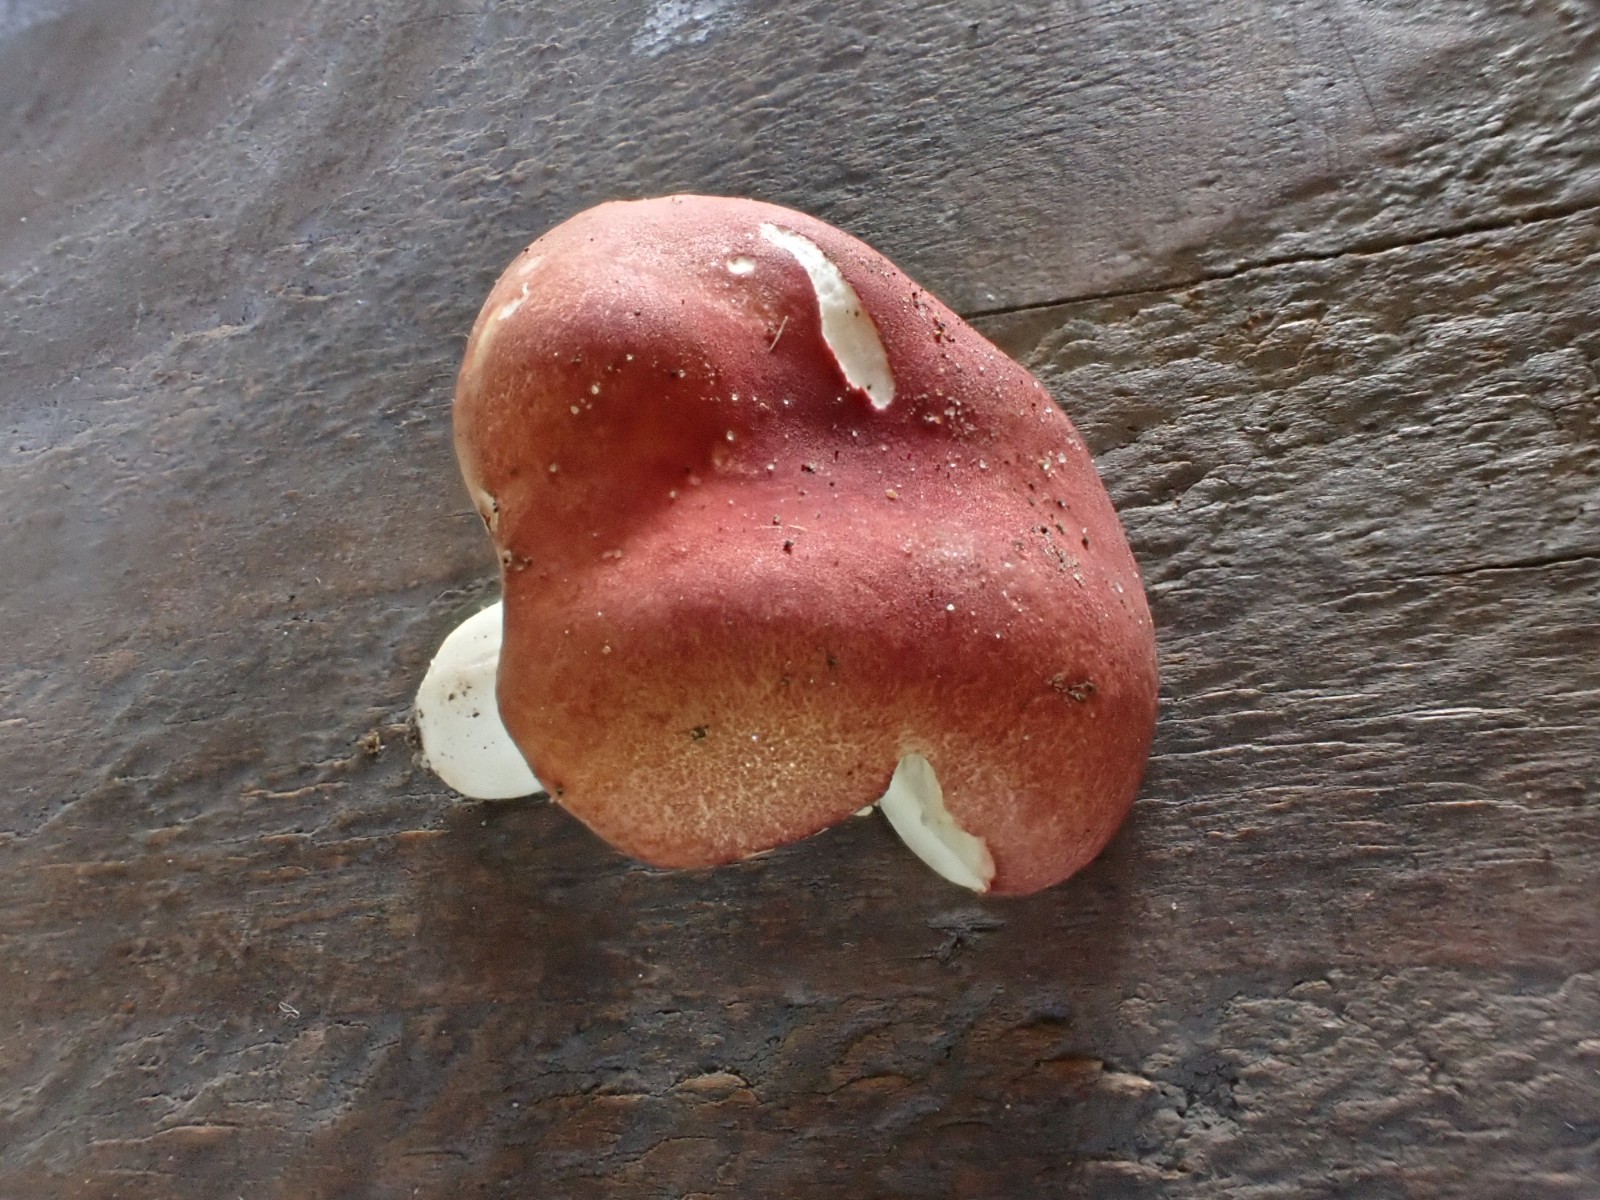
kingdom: Fungi
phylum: Basidiomycota
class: Agaricomycetes
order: Russulales
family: Russulaceae
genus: Russula
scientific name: Russula melzeri
